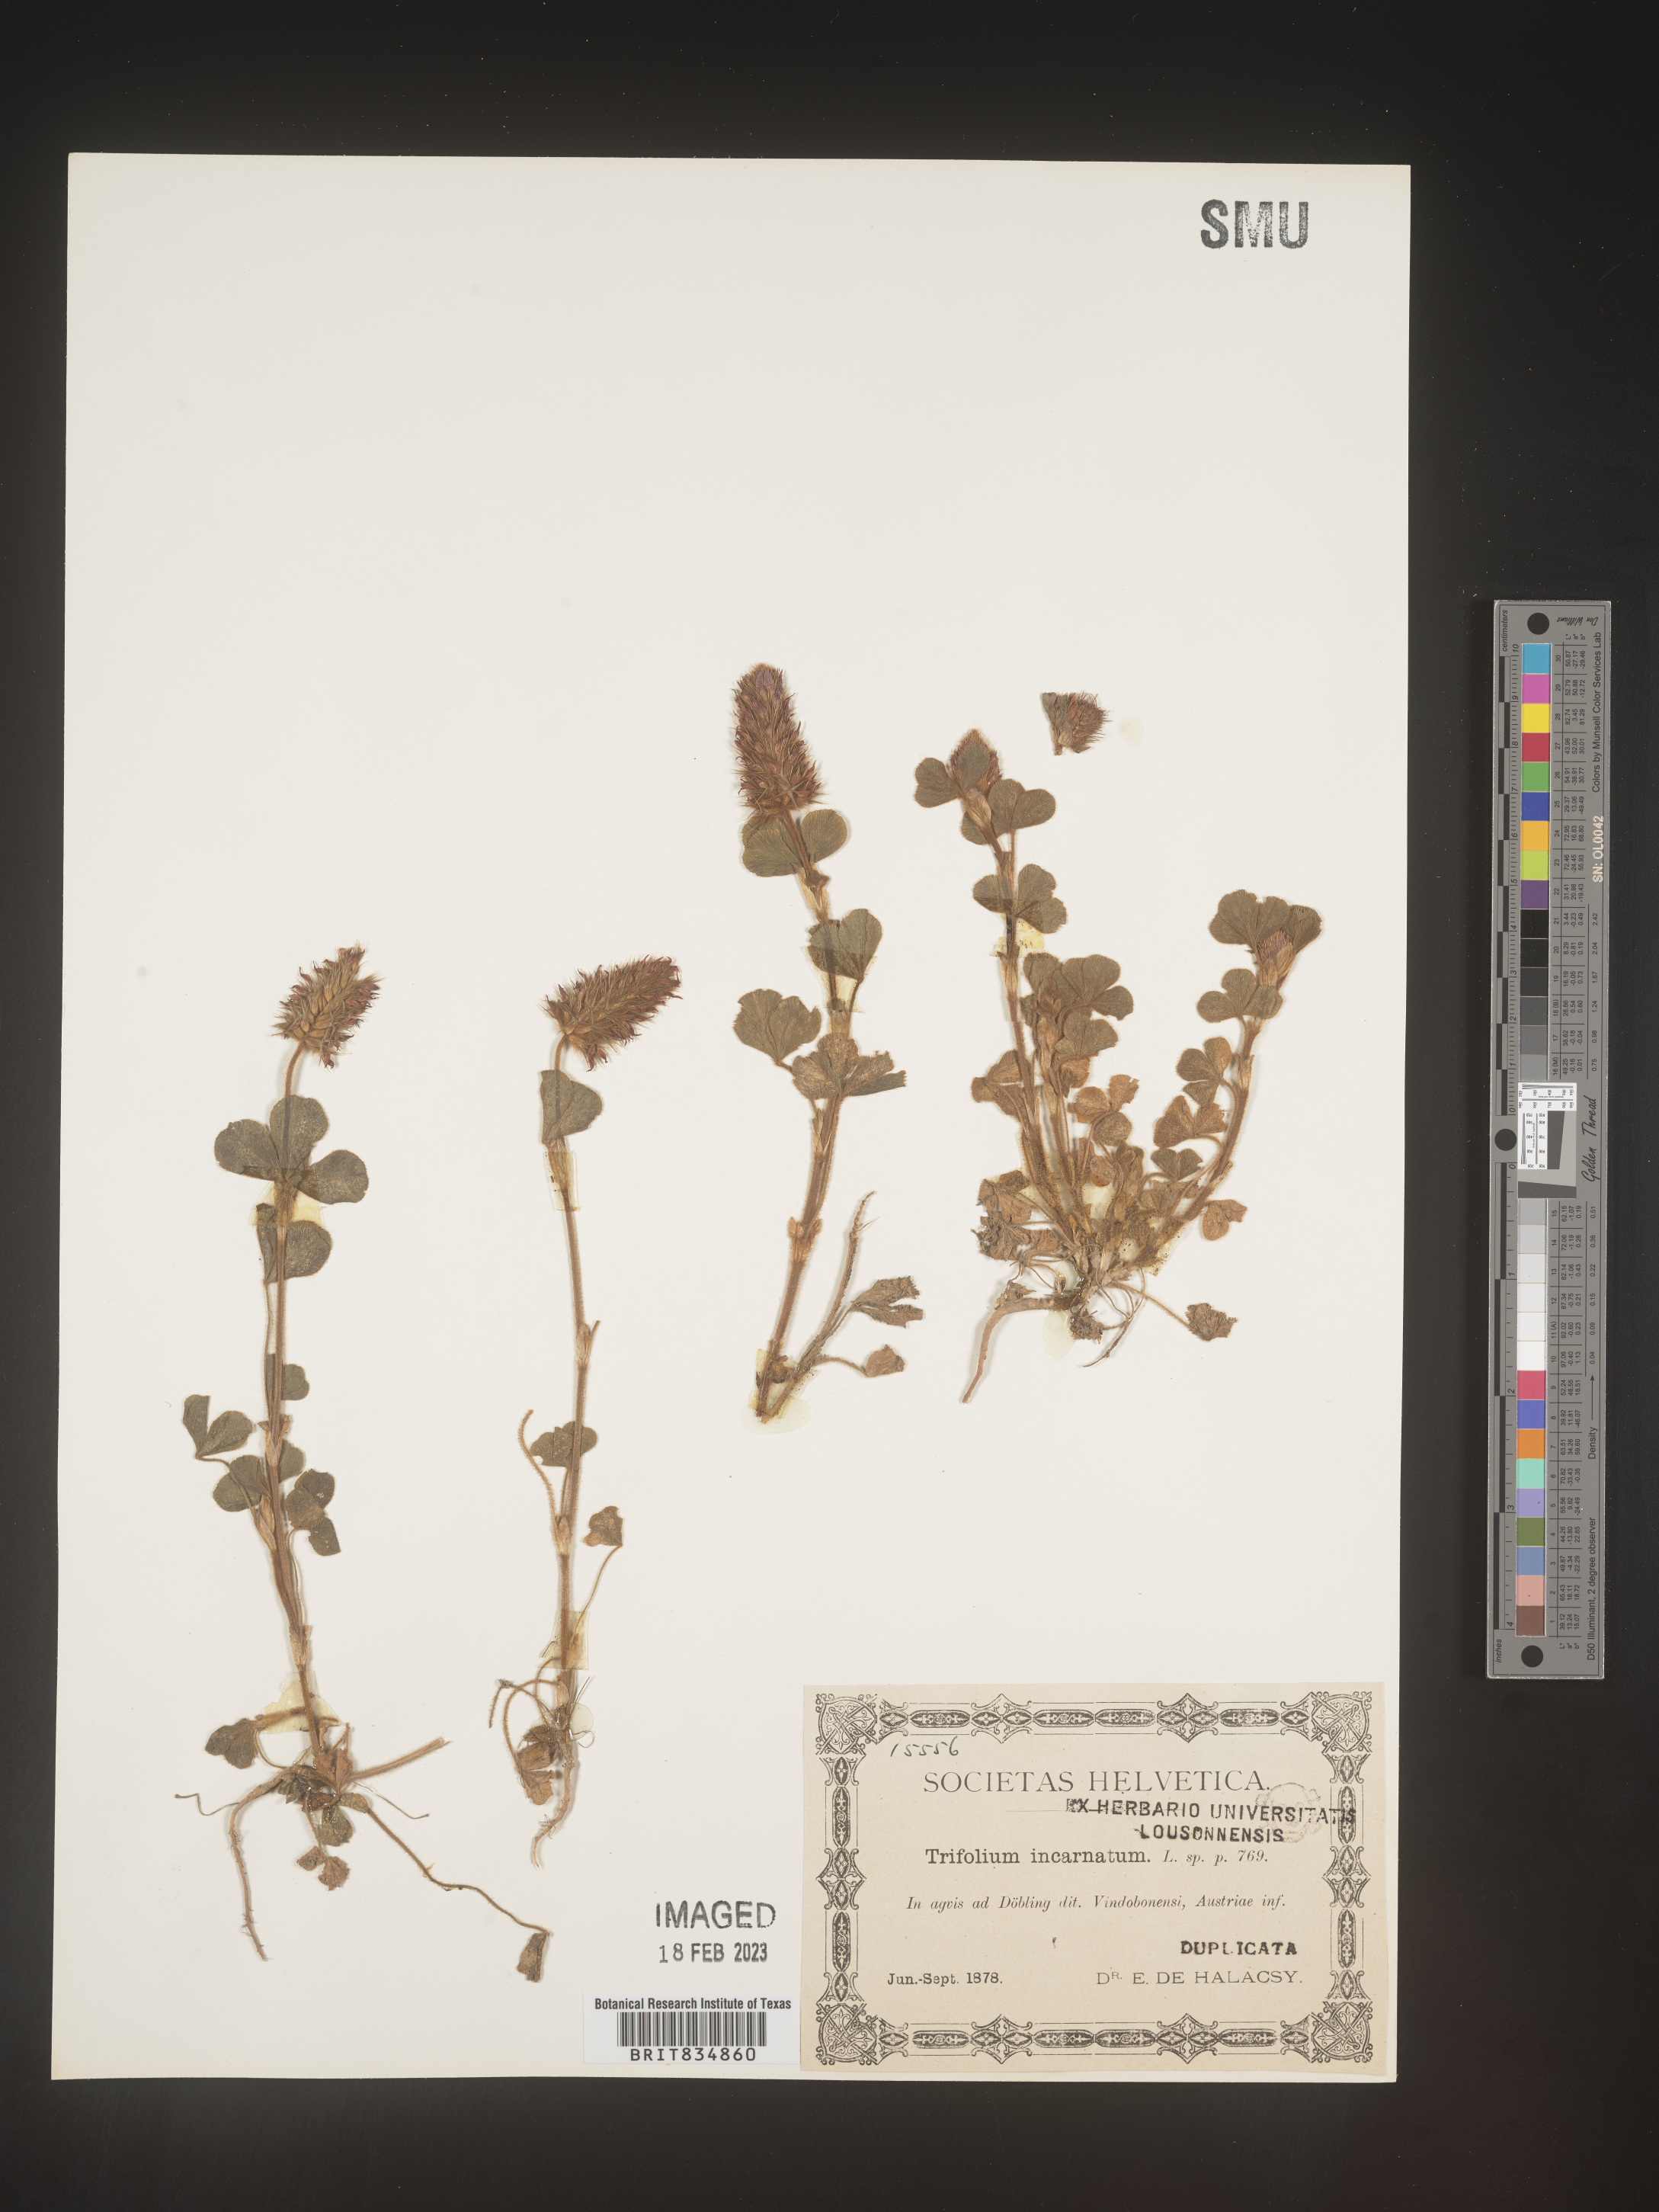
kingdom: Plantae
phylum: Tracheophyta
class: Magnoliopsida
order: Fabales
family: Fabaceae
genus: Trifolium
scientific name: Trifolium incarnatum
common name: Crimson clover
